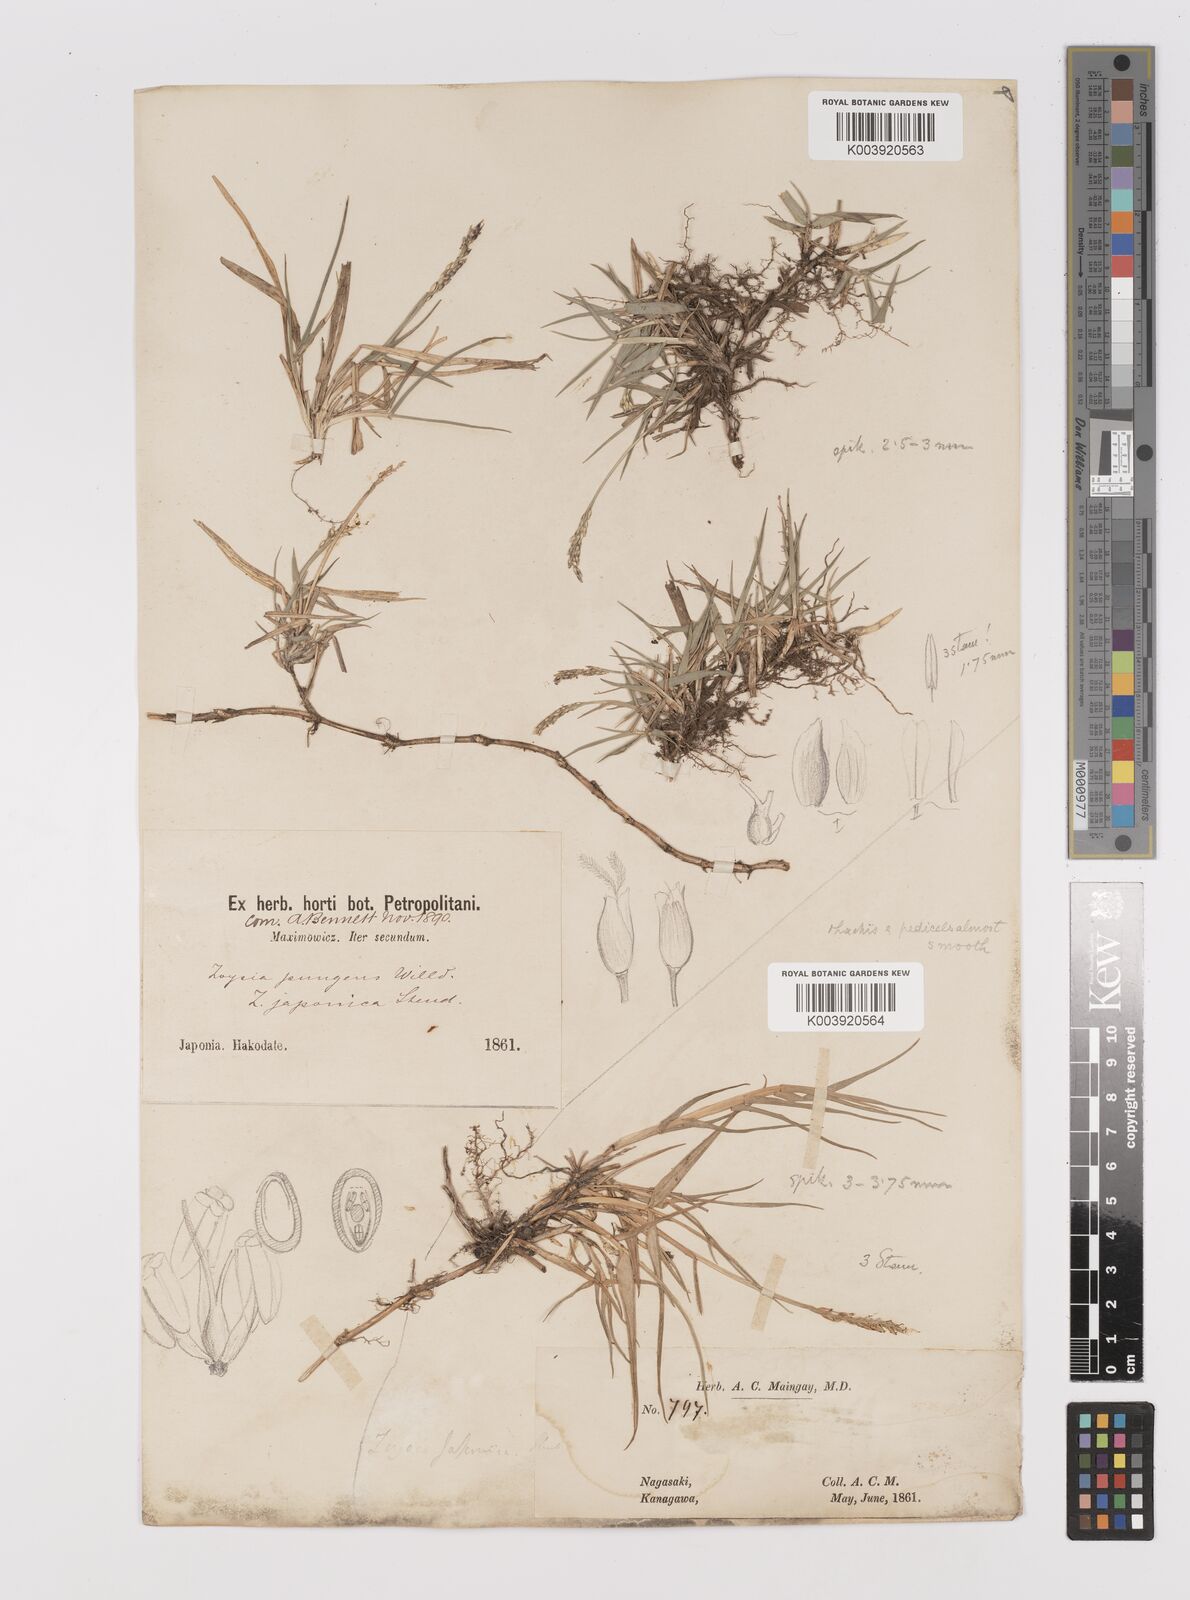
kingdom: Plantae
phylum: Tracheophyta
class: Liliopsida
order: Poales
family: Poaceae
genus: Zoysia
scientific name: Zoysia japonica
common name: Korean lawngrass
